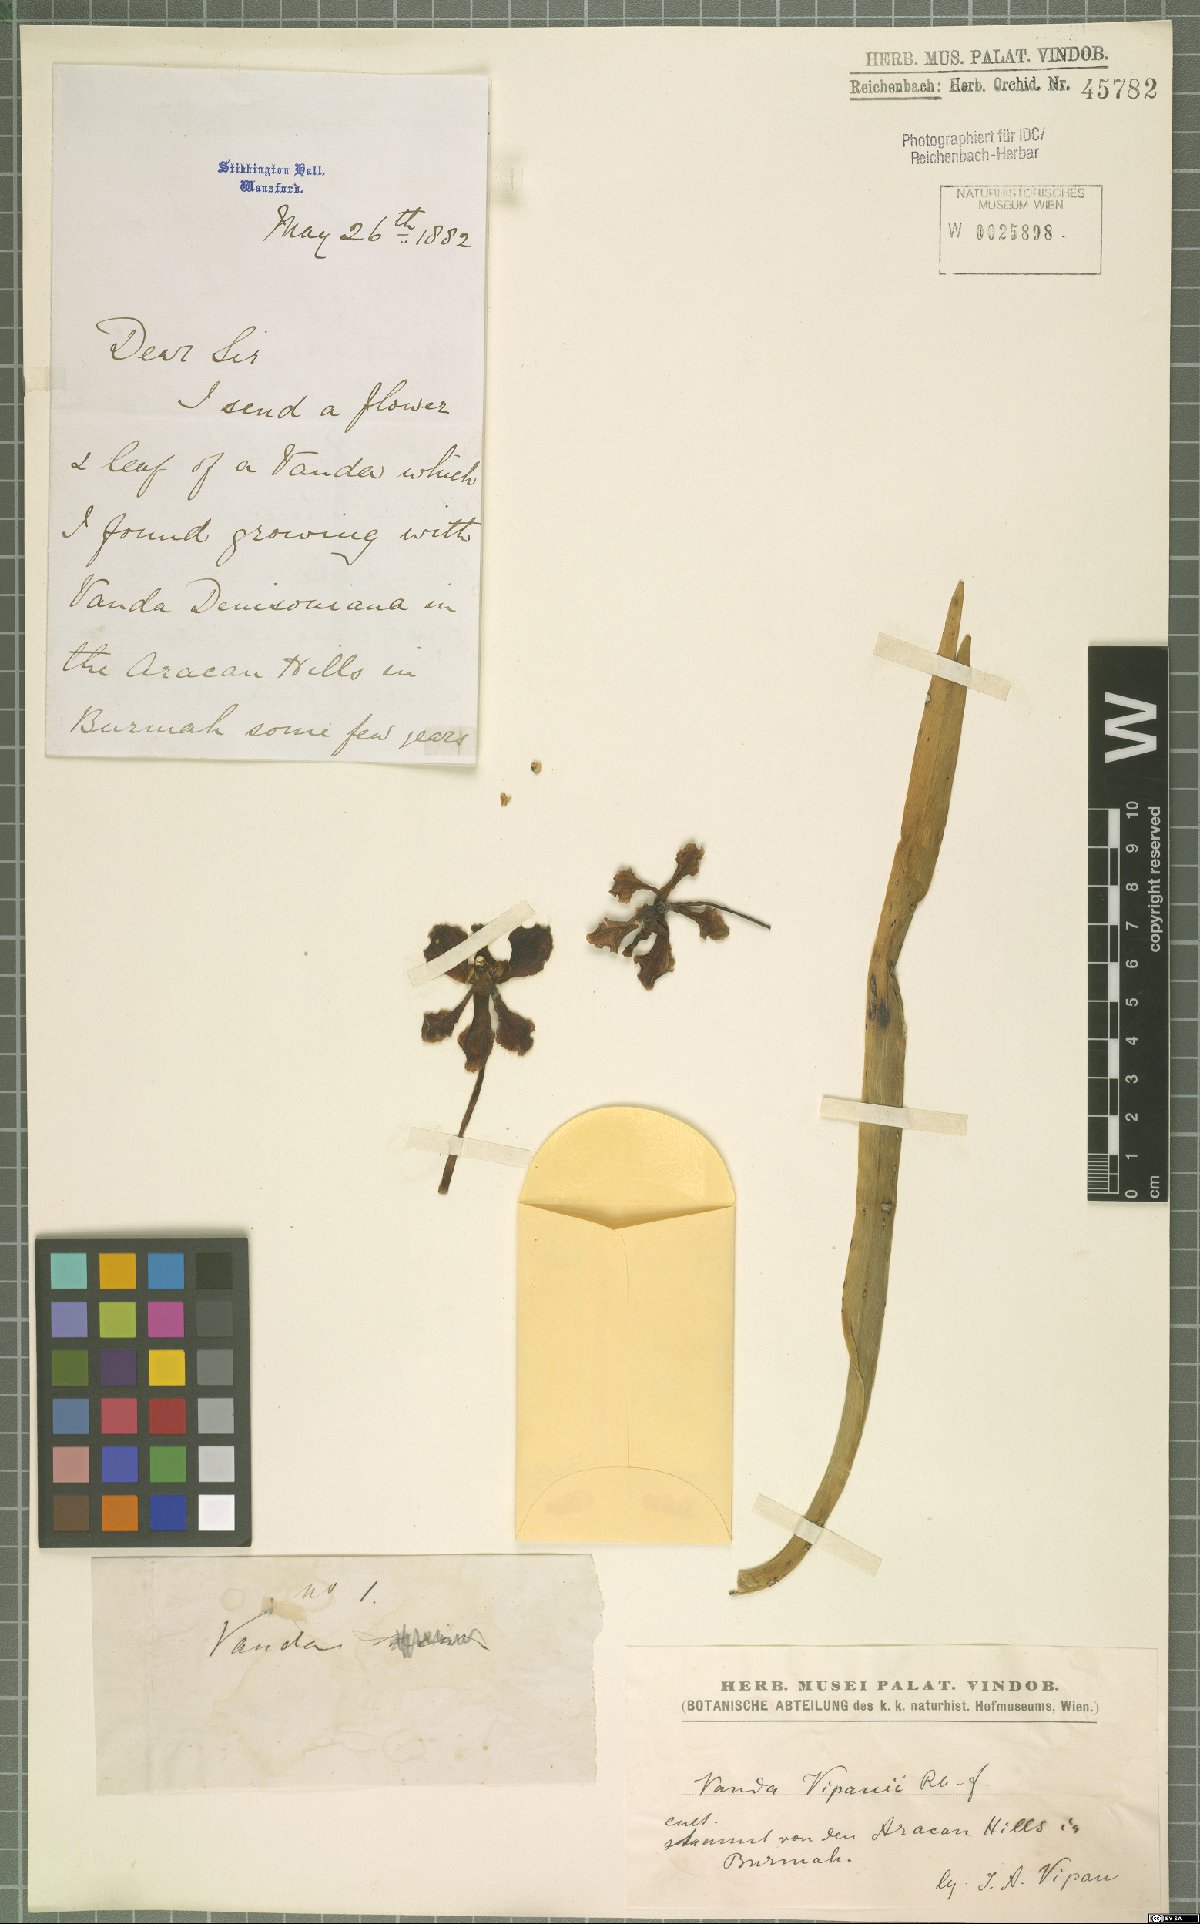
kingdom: Plantae
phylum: Tracheophyta
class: Liliopsida
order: Asparagales
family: Orchidaceae
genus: Vanda
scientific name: Vanda vipanii
